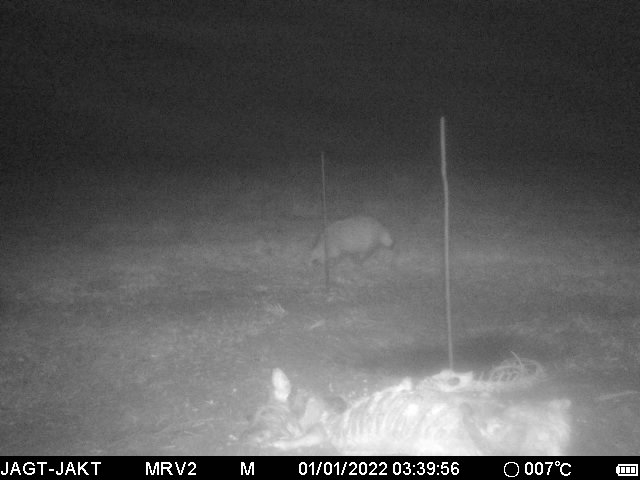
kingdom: Animalia
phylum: Chordata
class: Mammalia
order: Carnivora
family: Canidae
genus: Nyctereutes
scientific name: Nyctereutes procyonoides
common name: Mårhund
